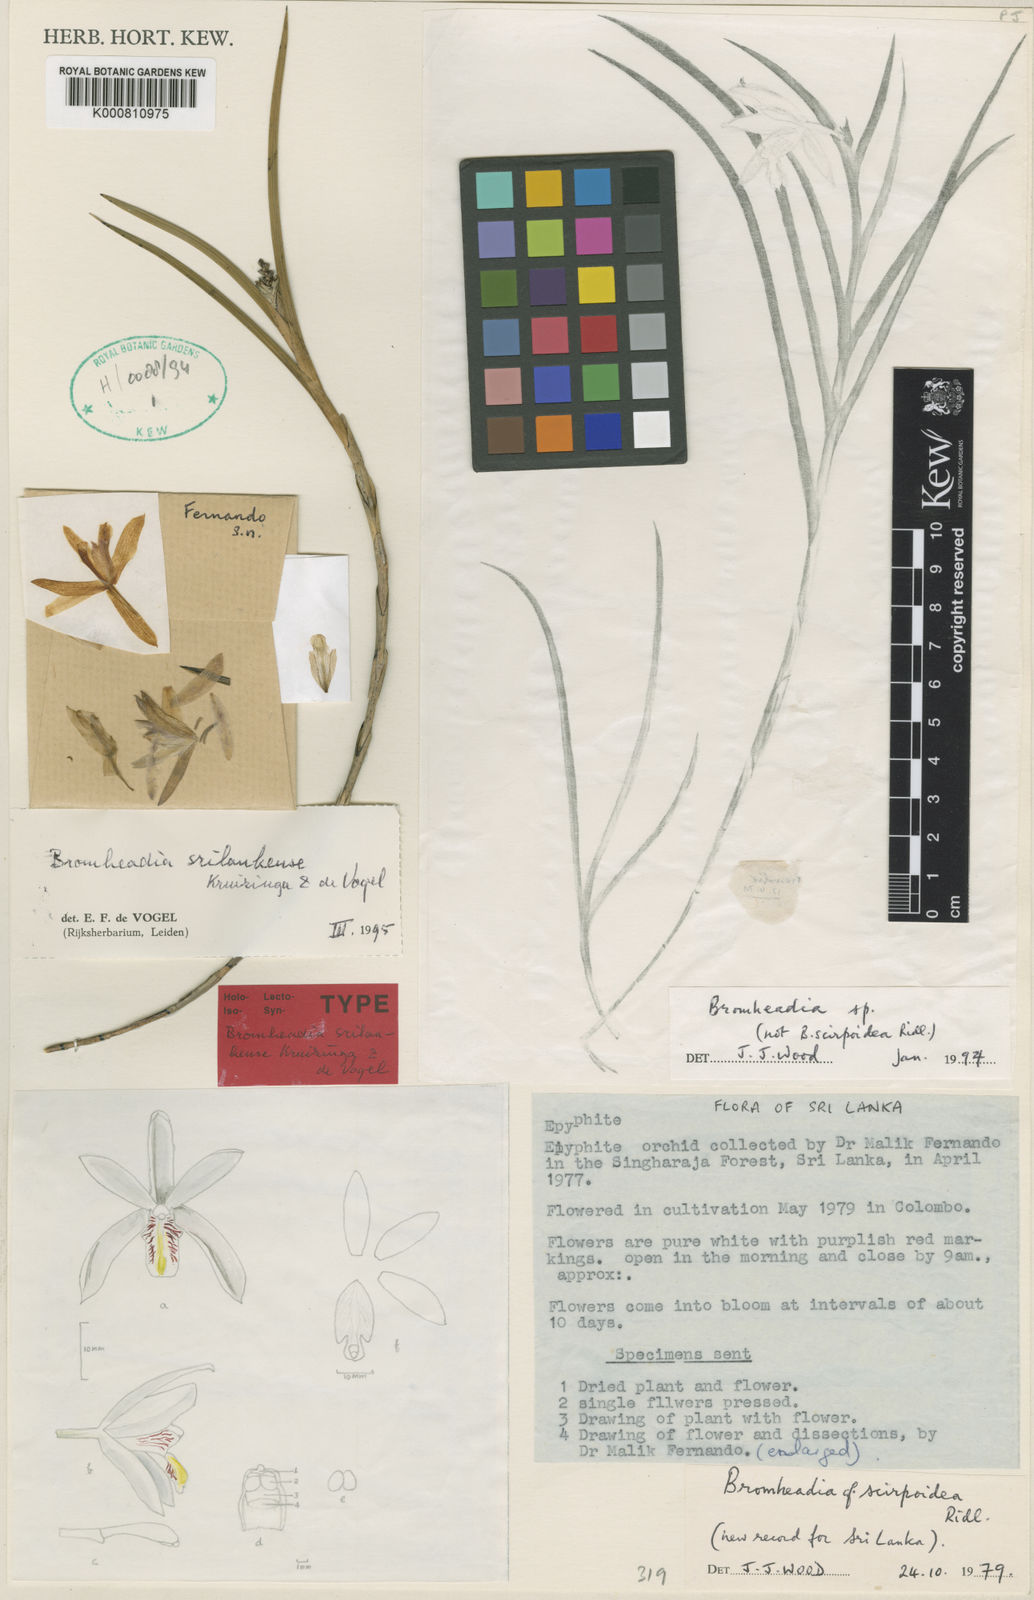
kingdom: Plantae
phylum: Tracheophyta
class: Liliopsida
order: Asparagales
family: Orchidaceae
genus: Bromheadia
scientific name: Bromheadia srilankensis
